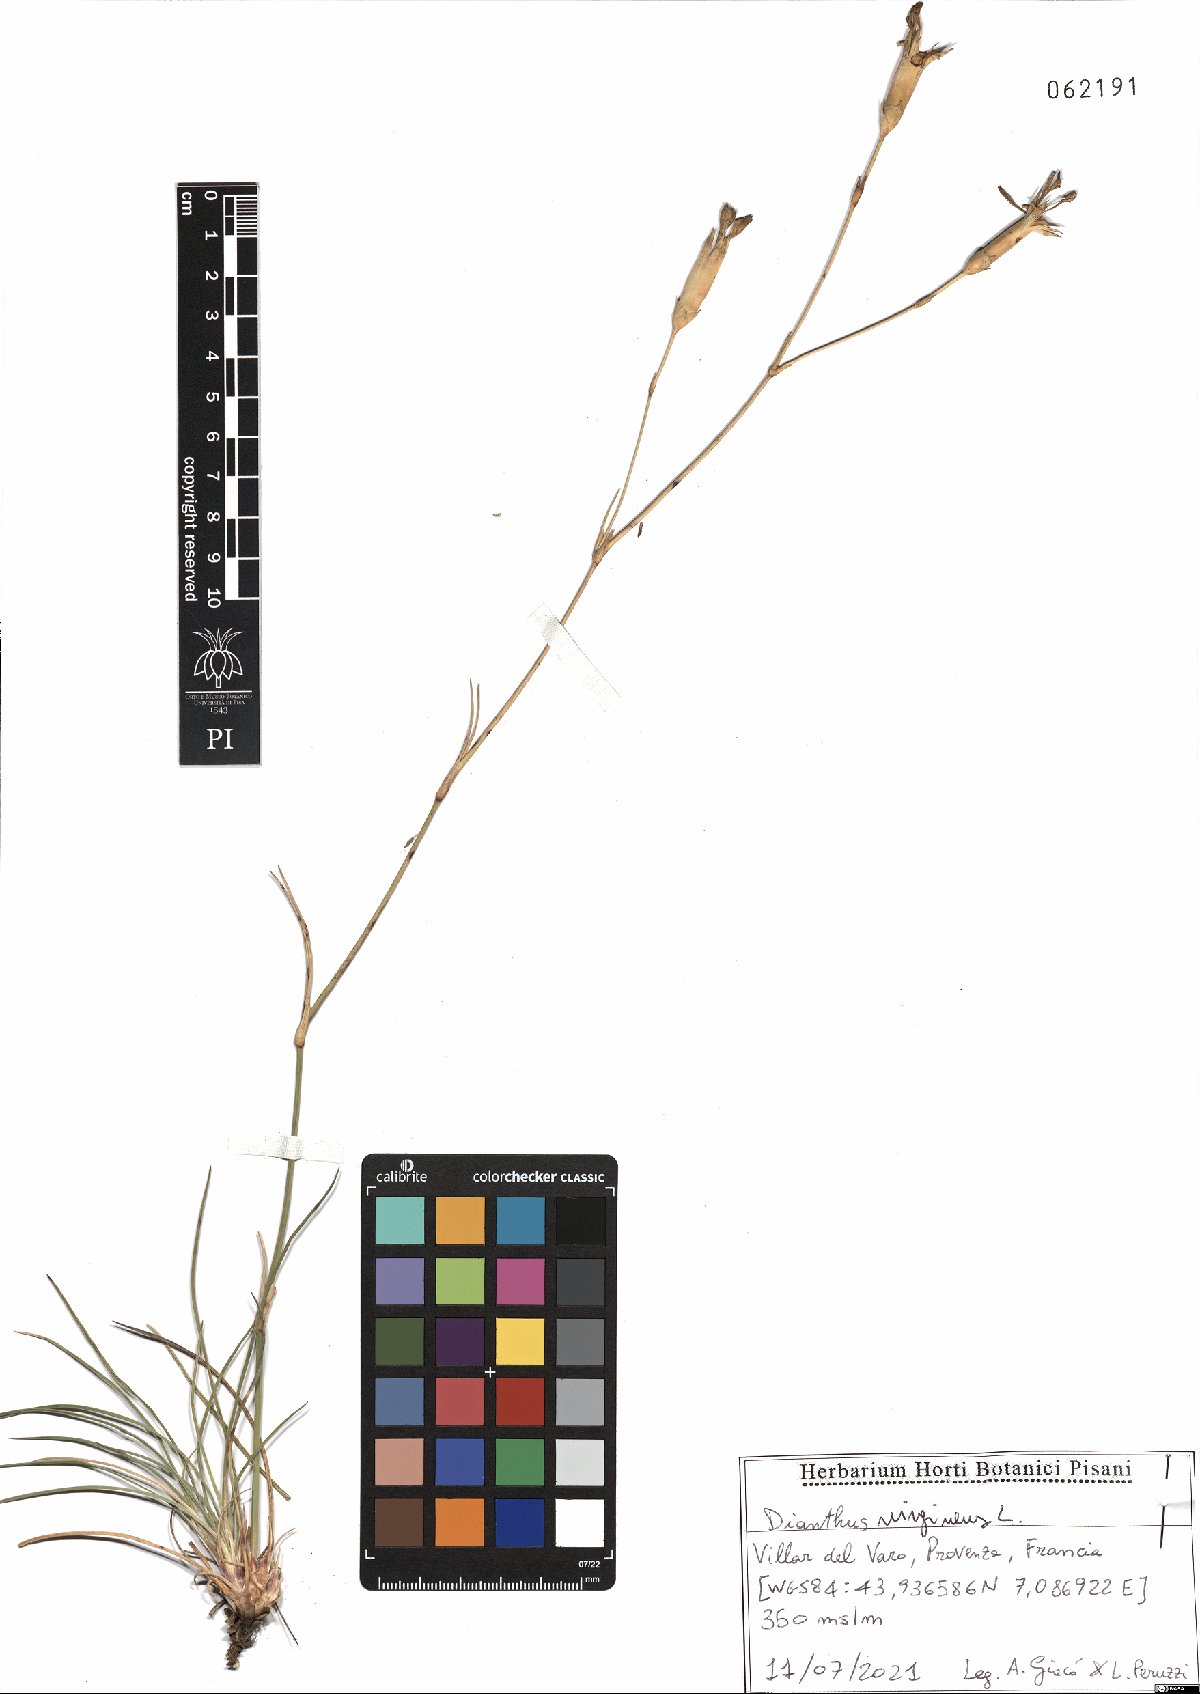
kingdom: Plantae
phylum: Tracheophyta
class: Magnoliopsida
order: Caryophyllales
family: Caryophyllaceae
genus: Dianthus
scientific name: Dianthus virgineus
